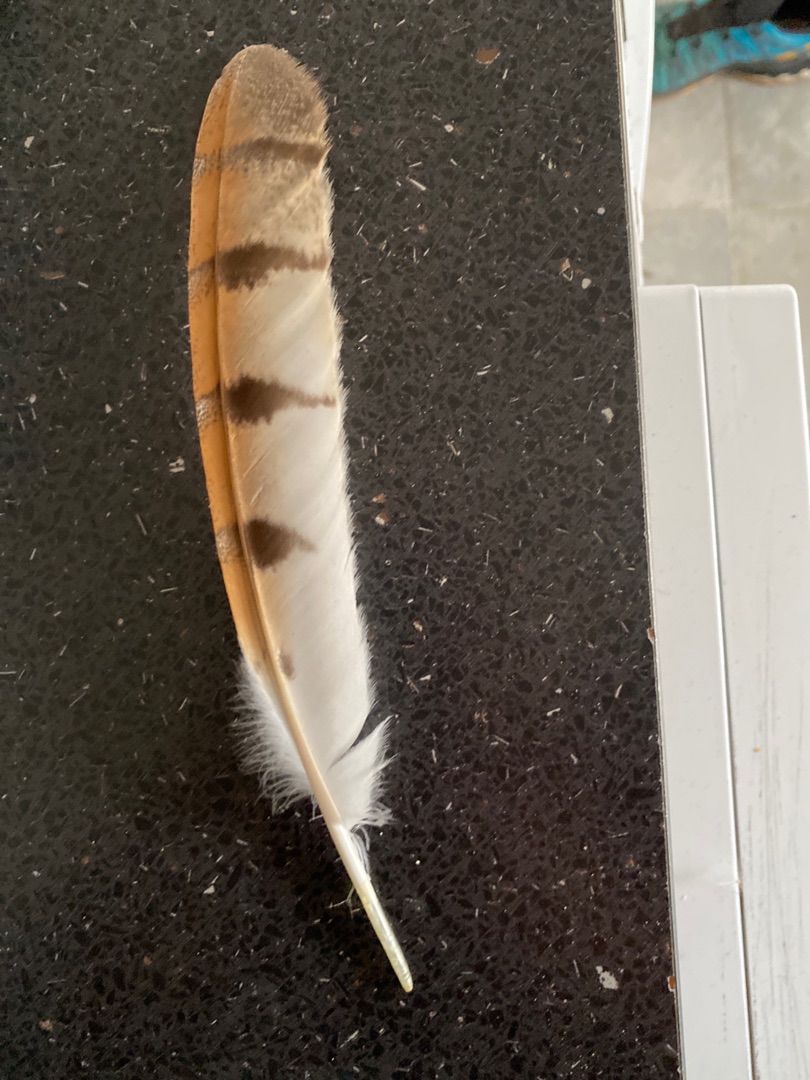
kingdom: Animalia
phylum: Chordata
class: Aves
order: Strigiformes
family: Tytonidae
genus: Tyto
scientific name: Tyto alba
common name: Slørugle
